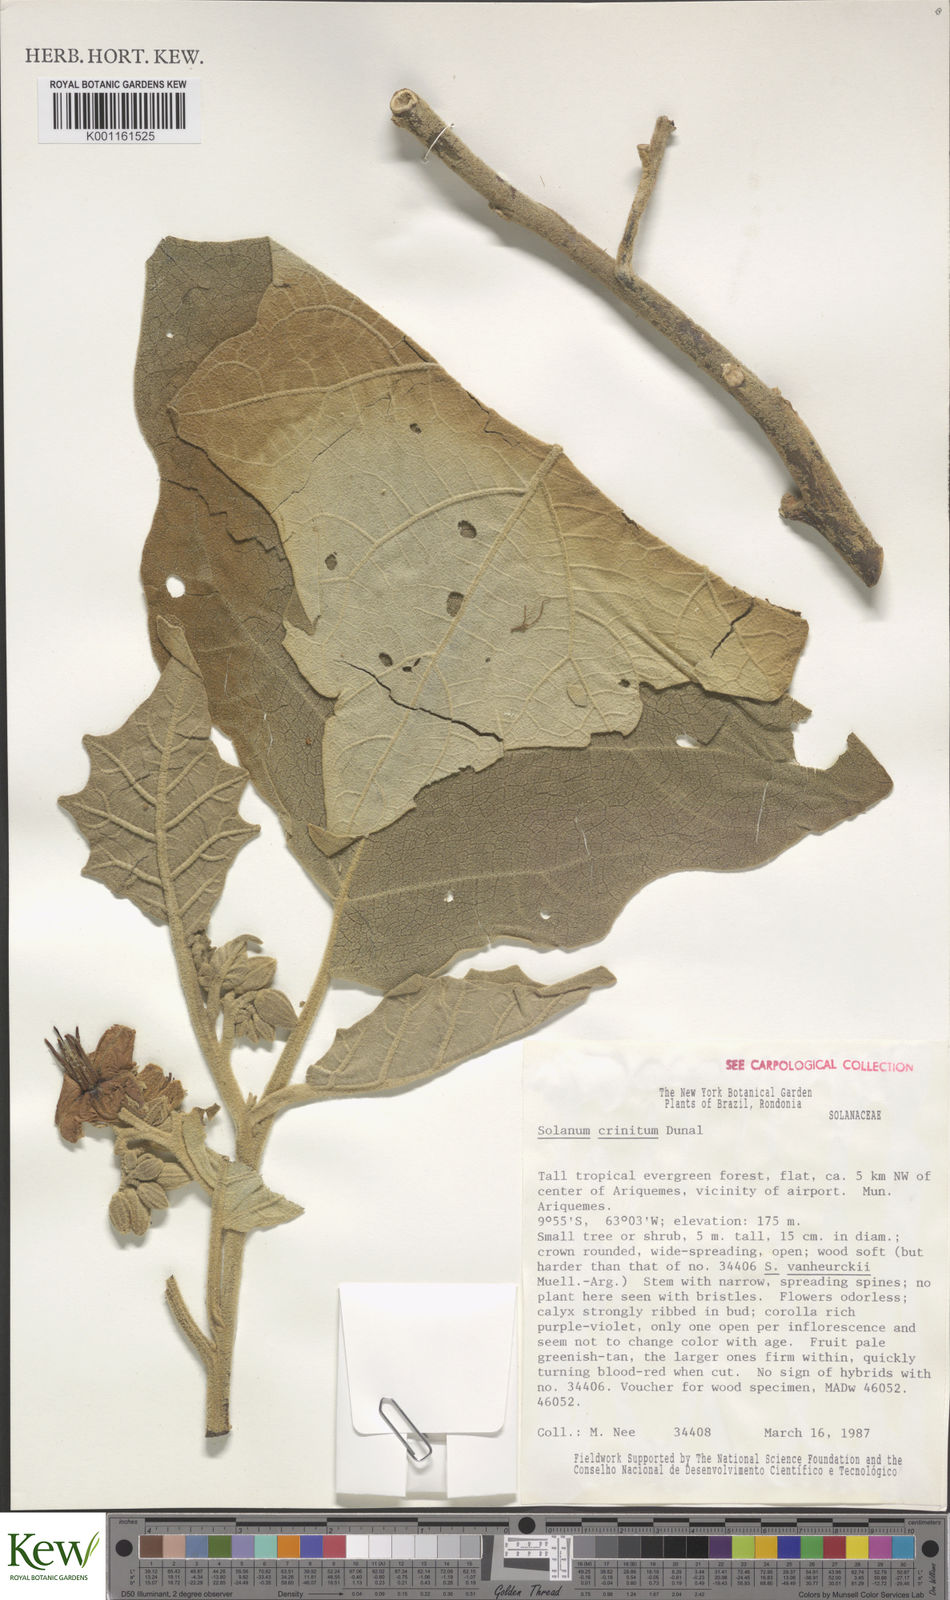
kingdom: Plantae
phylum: Tracheophyta
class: Magnoliopsida
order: Solanales
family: Solanaceae
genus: Solanum
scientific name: Solanum crinitum
